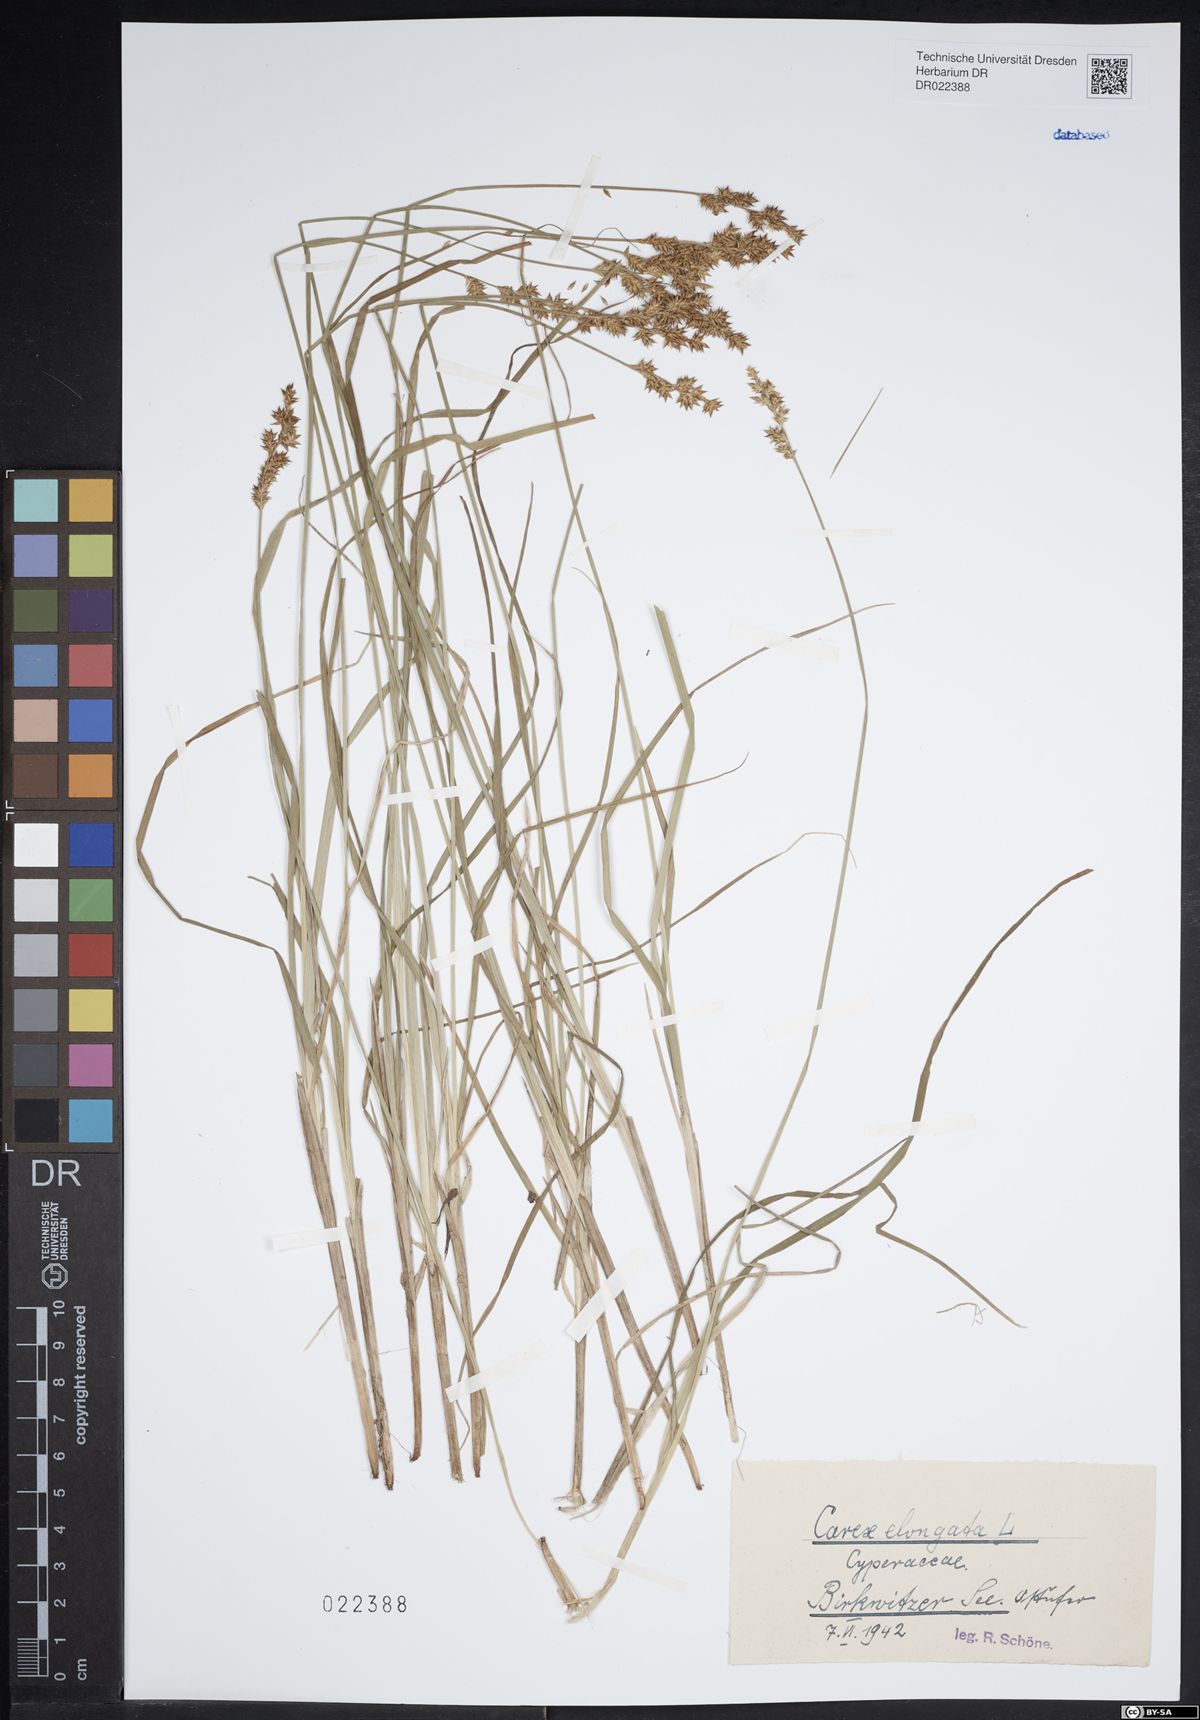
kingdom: Plantae
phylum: Tracheophyta
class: Liliopsida
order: Poales
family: Cyperaceae
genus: Carex
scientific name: Carex elongata
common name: Elongated sedge
